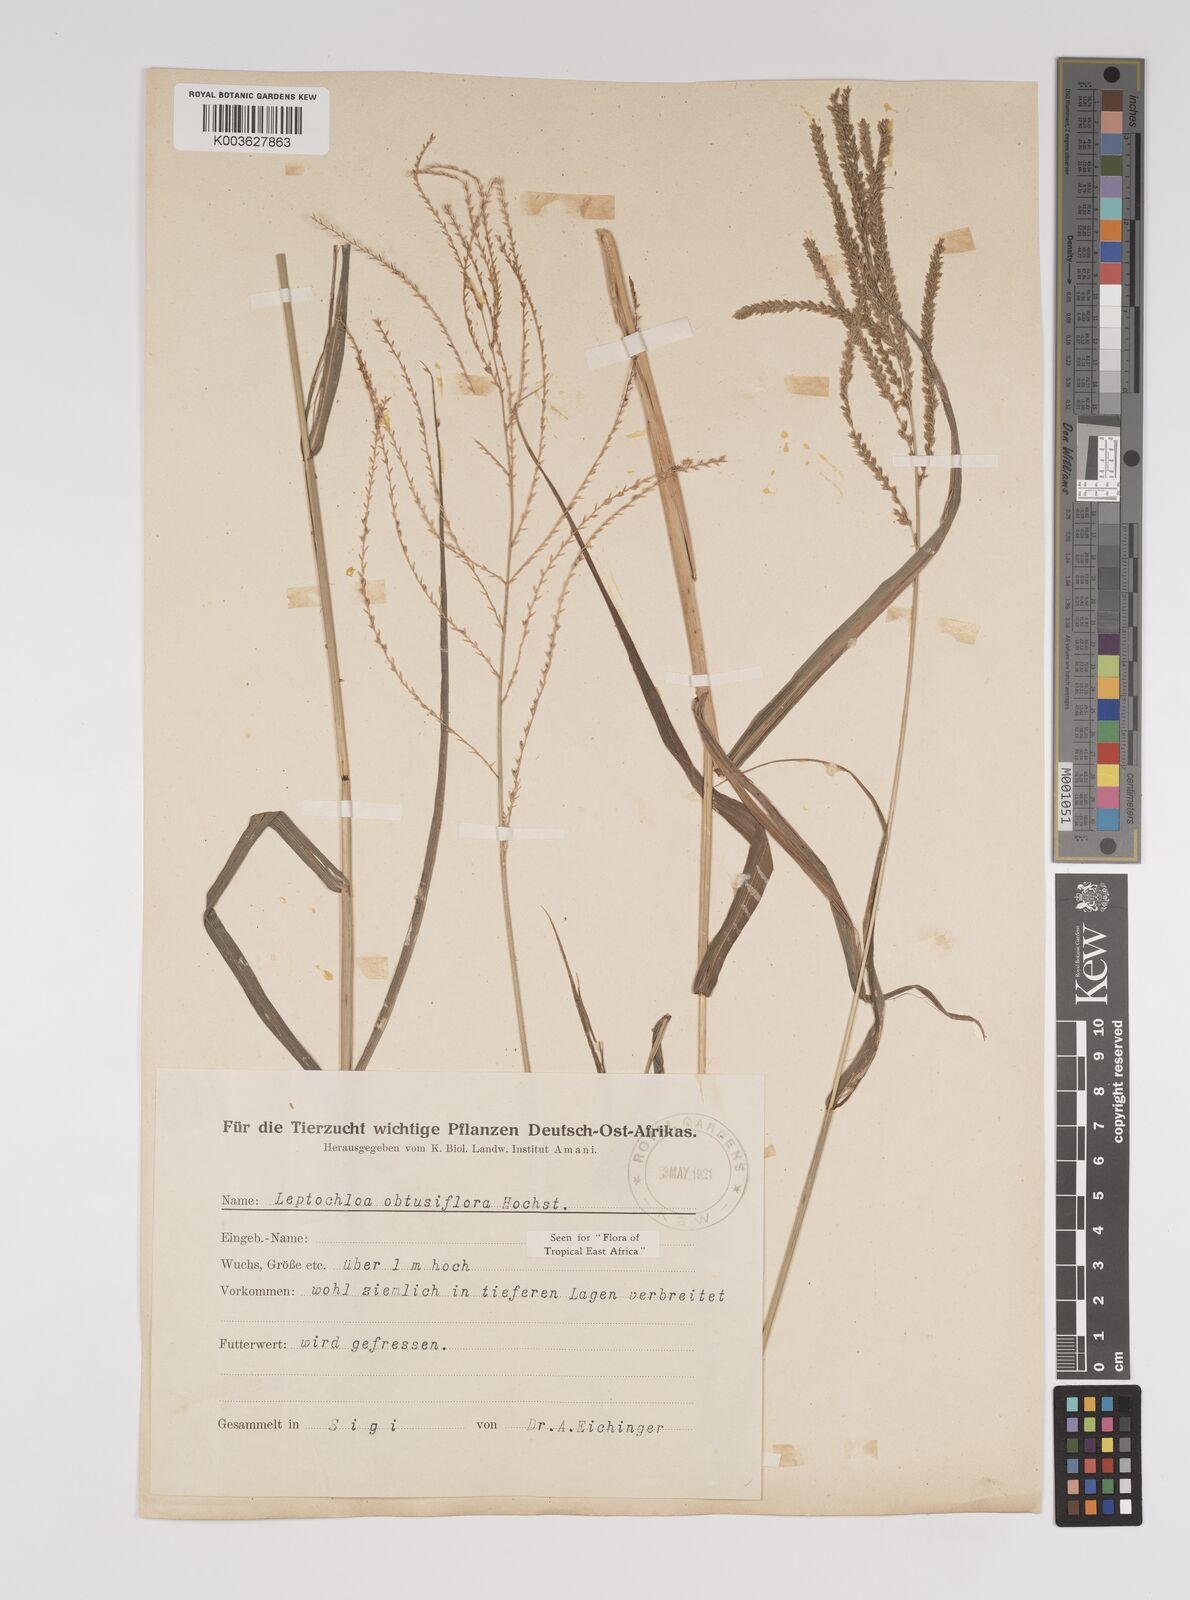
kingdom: Plantae
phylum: Tracheophyta
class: Liliopsida
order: Poales
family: Poaceae
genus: Disakisperma
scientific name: Disakisperma obtusiflorum
